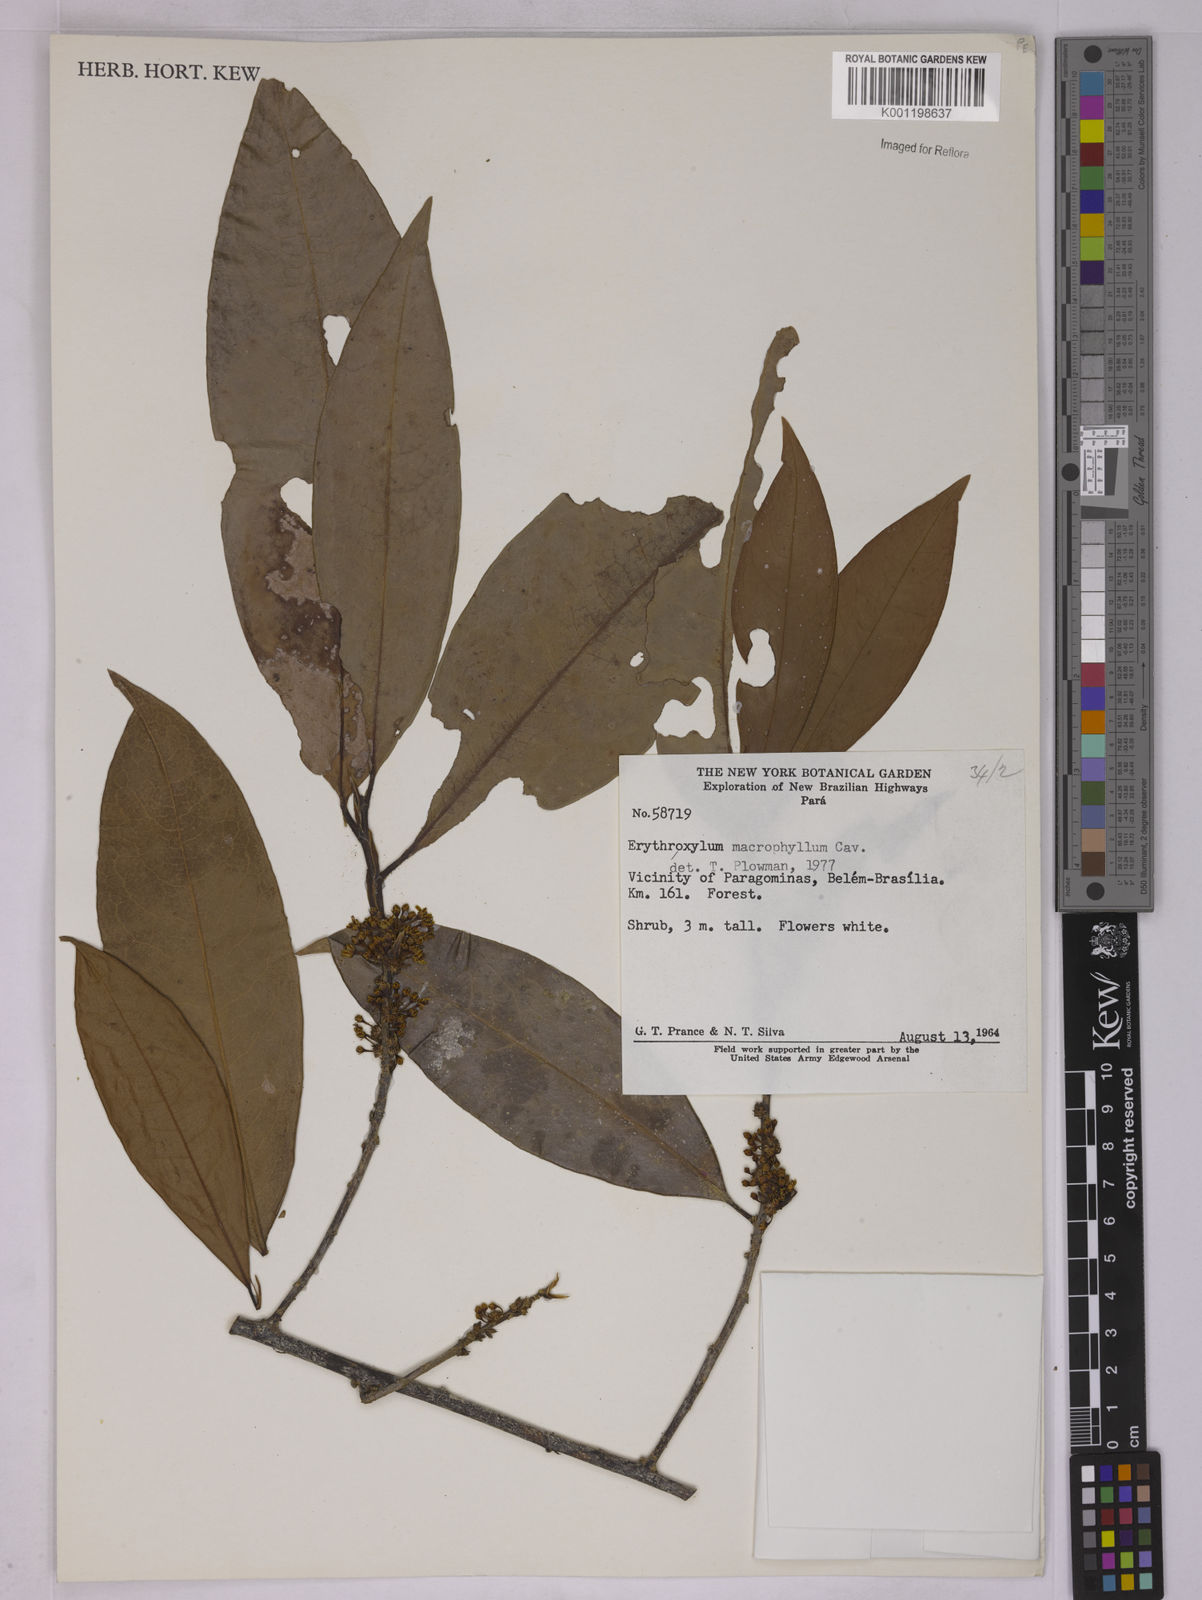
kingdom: Plantae
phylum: Tracheophyta
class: Magnoliopsida
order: Malpighiales
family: Erythroxylaceae
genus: Erythroxylum
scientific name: Erythroxylum macrophyllum
